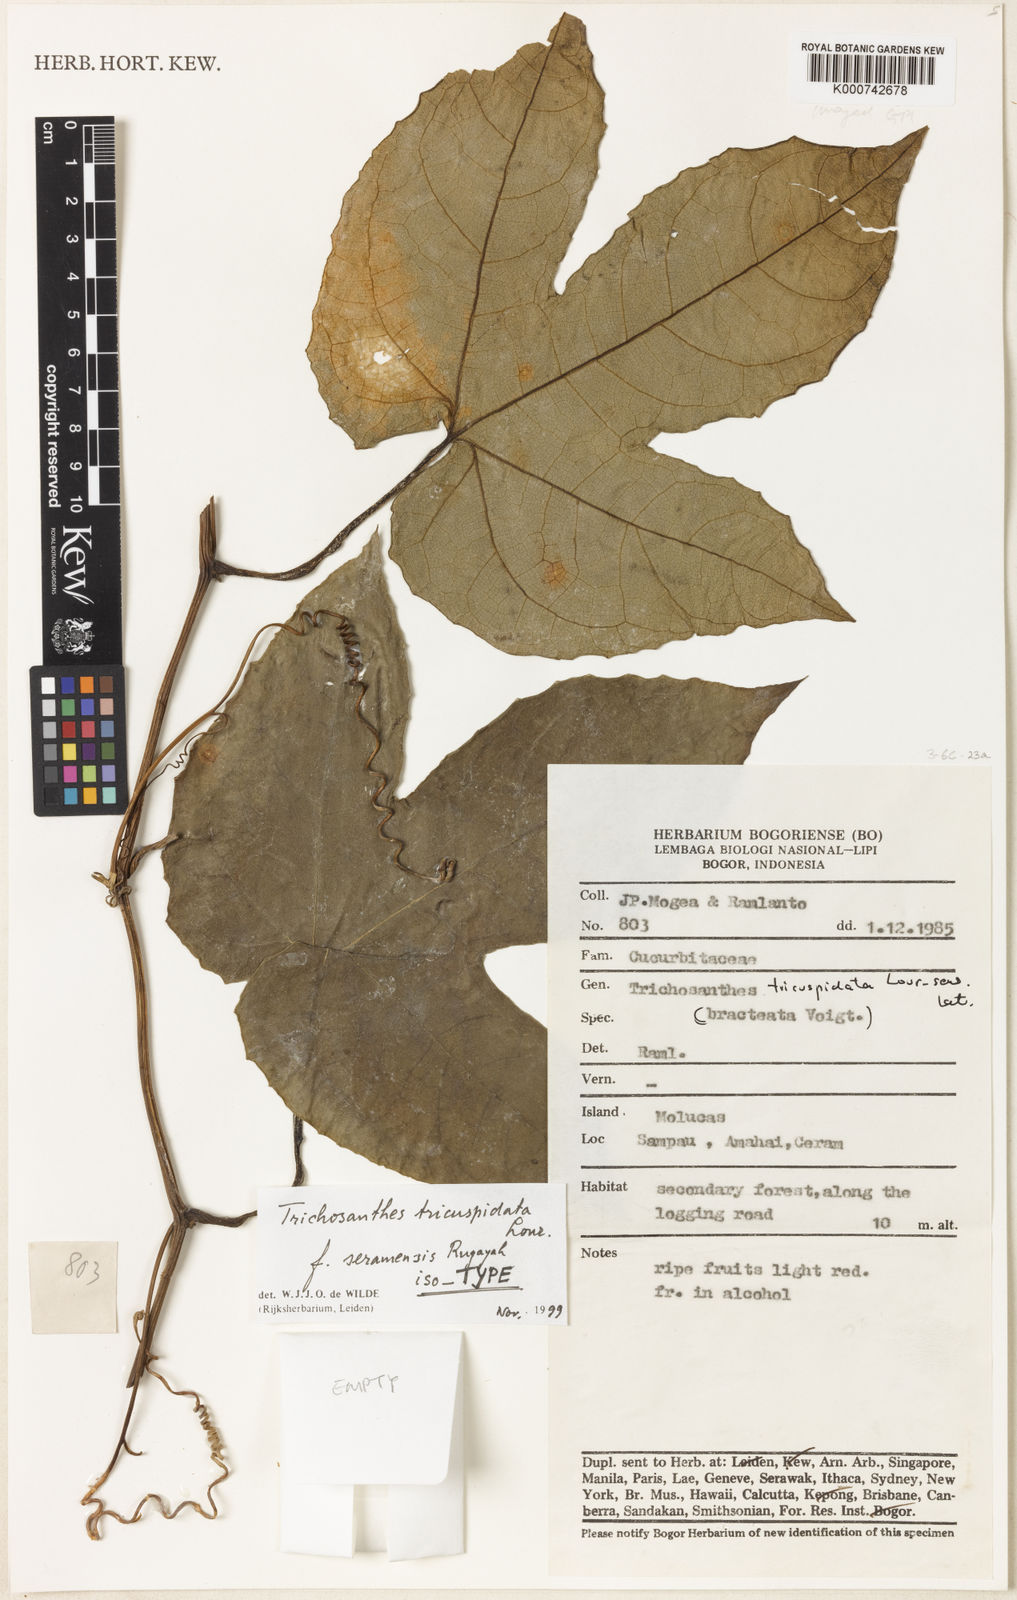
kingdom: Plantae
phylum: Tracheophyta
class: Magnoliopsida
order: Cucurbitales
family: Cucurbitaceae
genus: Trichosanthes
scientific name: Trichosanthes tricuspidata
